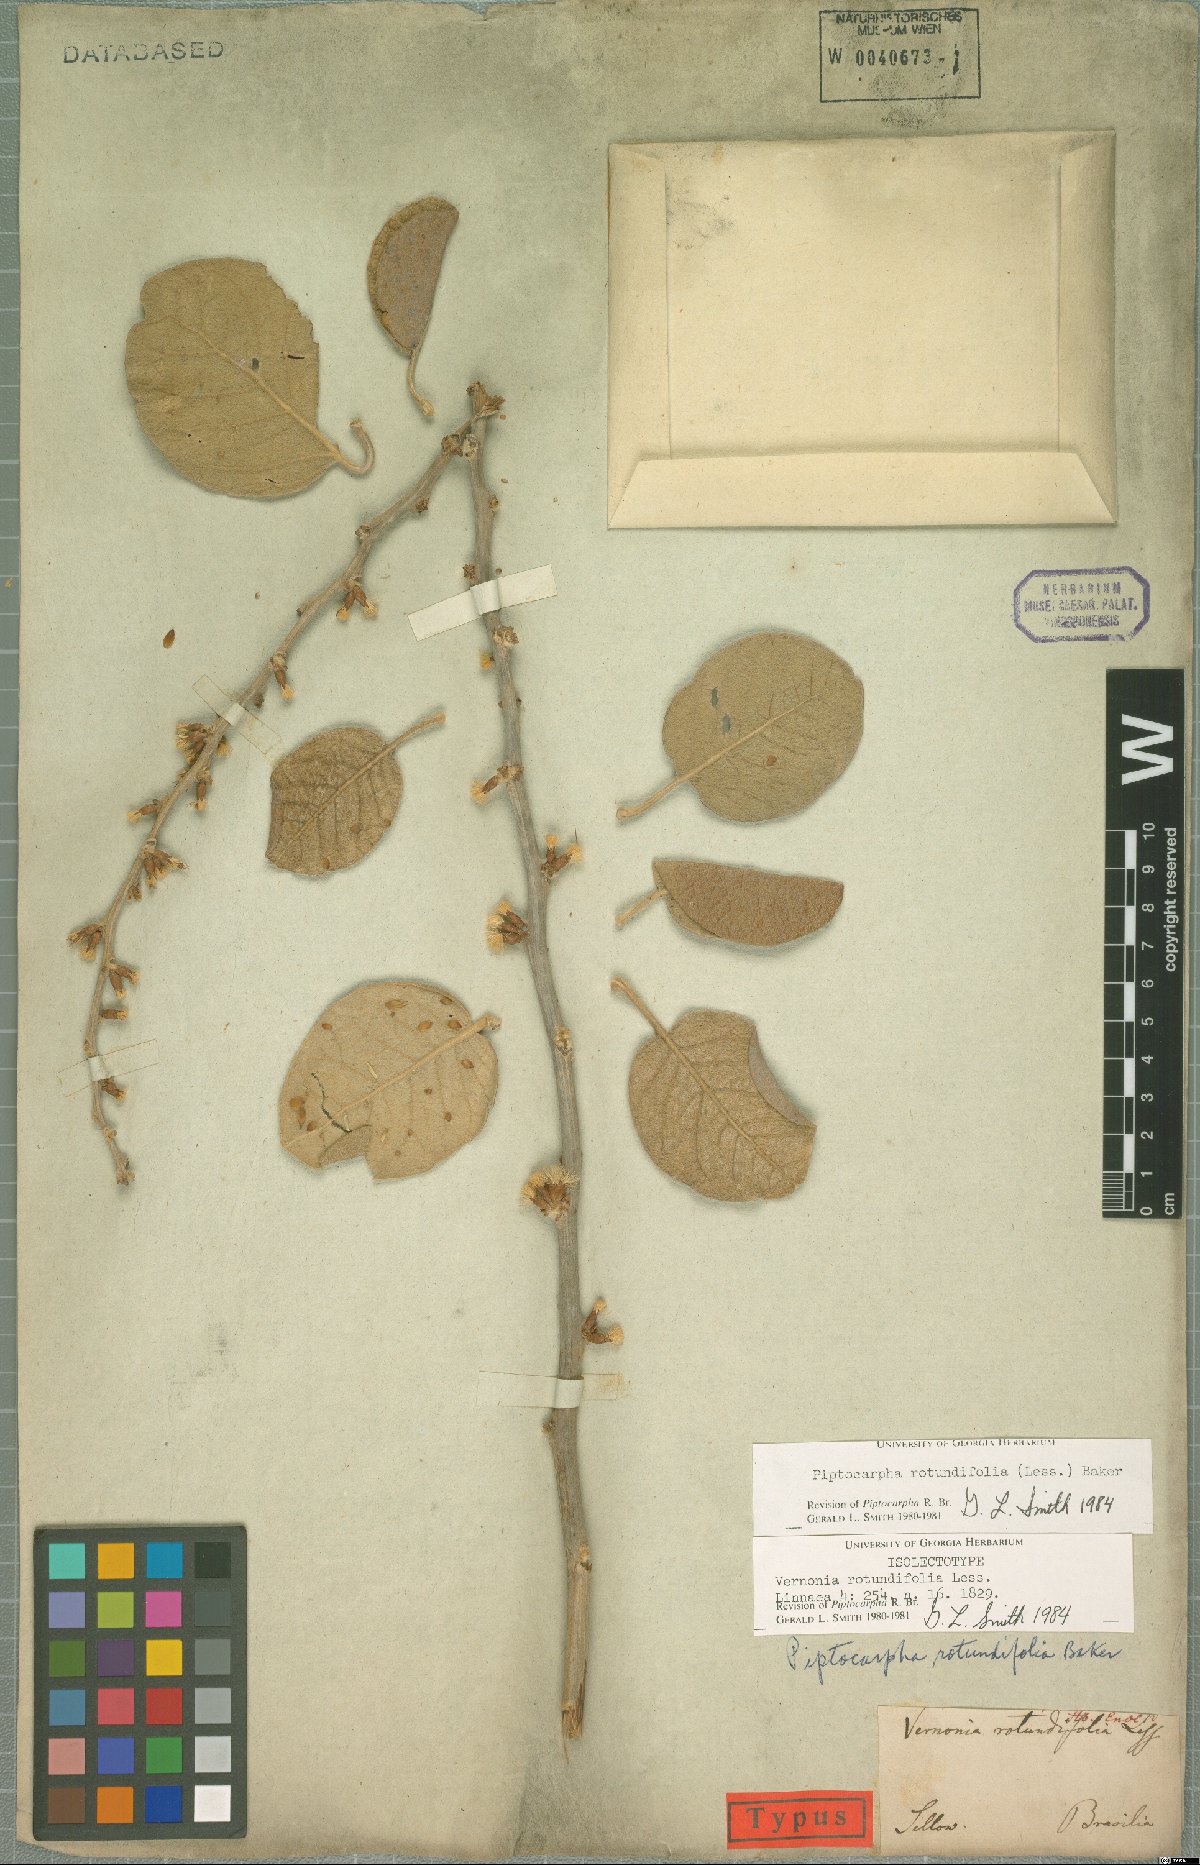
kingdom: Plantae
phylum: Tracheophyta
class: Magnoliopsida
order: Asterales
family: Asteraceae
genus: Piptocarpha
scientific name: Piptocarpha rotundifolia
